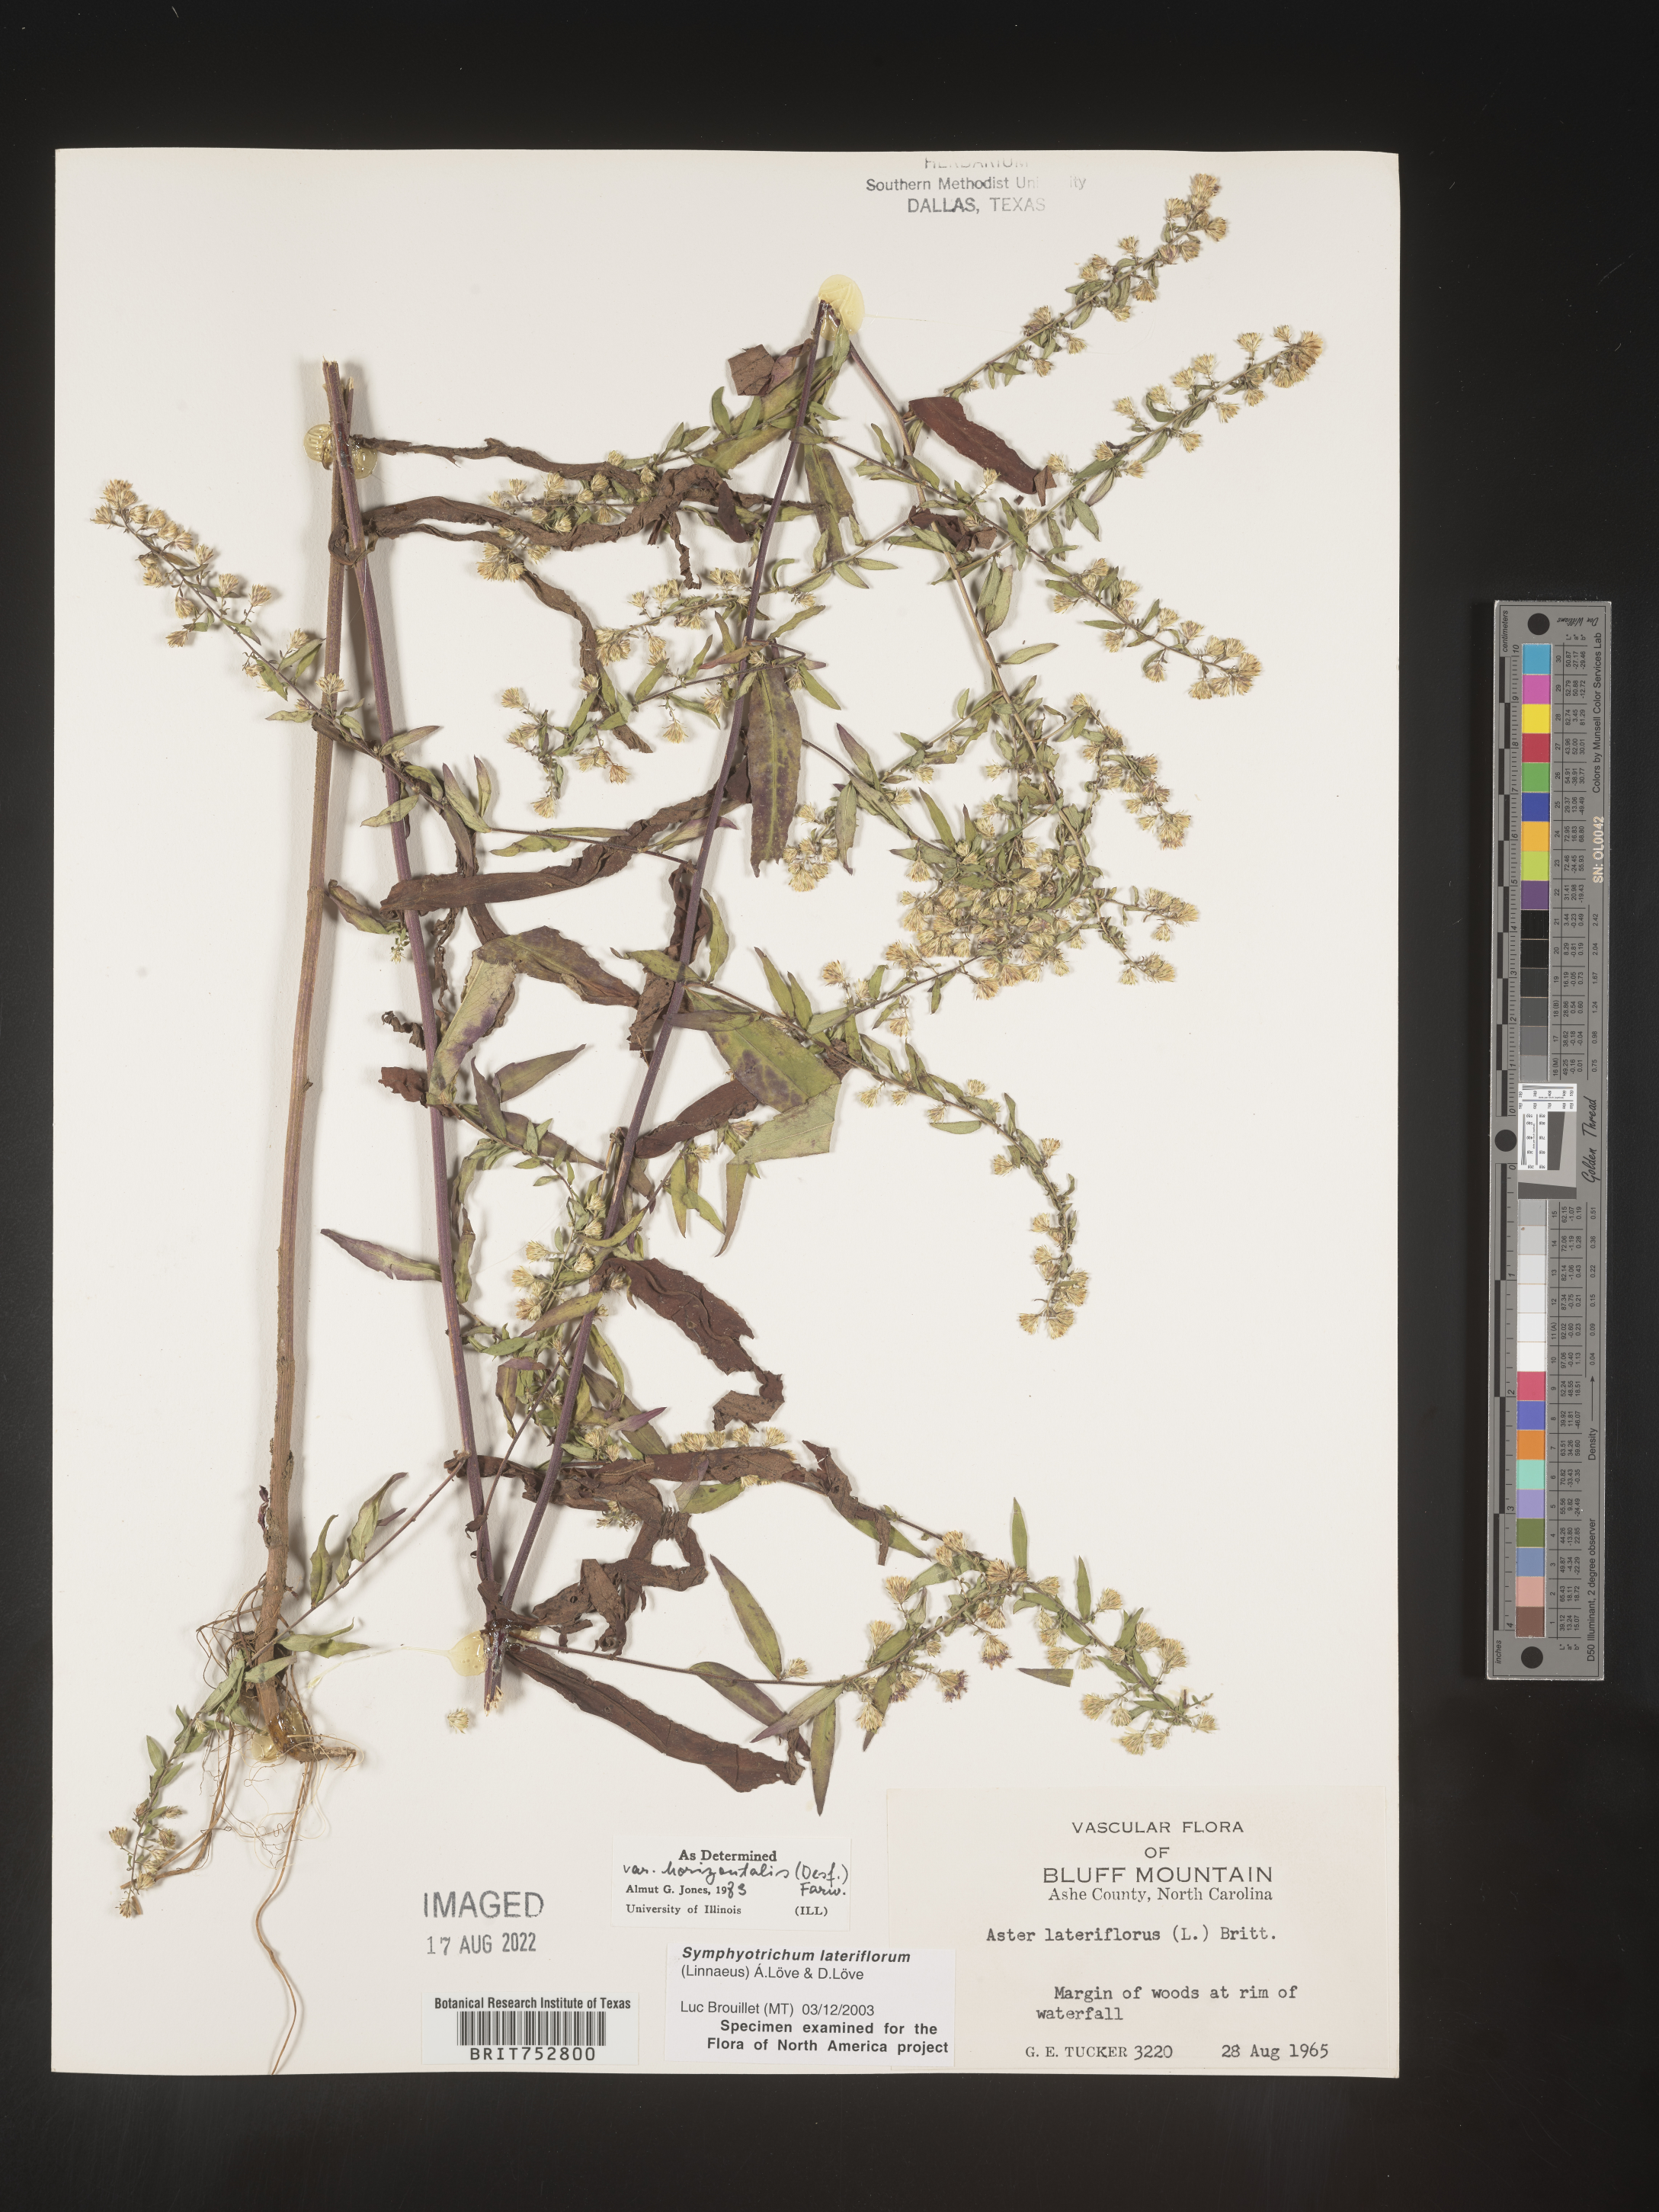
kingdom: Plantae
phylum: Tracheophyta
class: Magnoliopsida
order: Asterales
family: Asteraceae
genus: Symphyotrichum
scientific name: Symphyotrichum lateriflorum
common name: Calico aster
